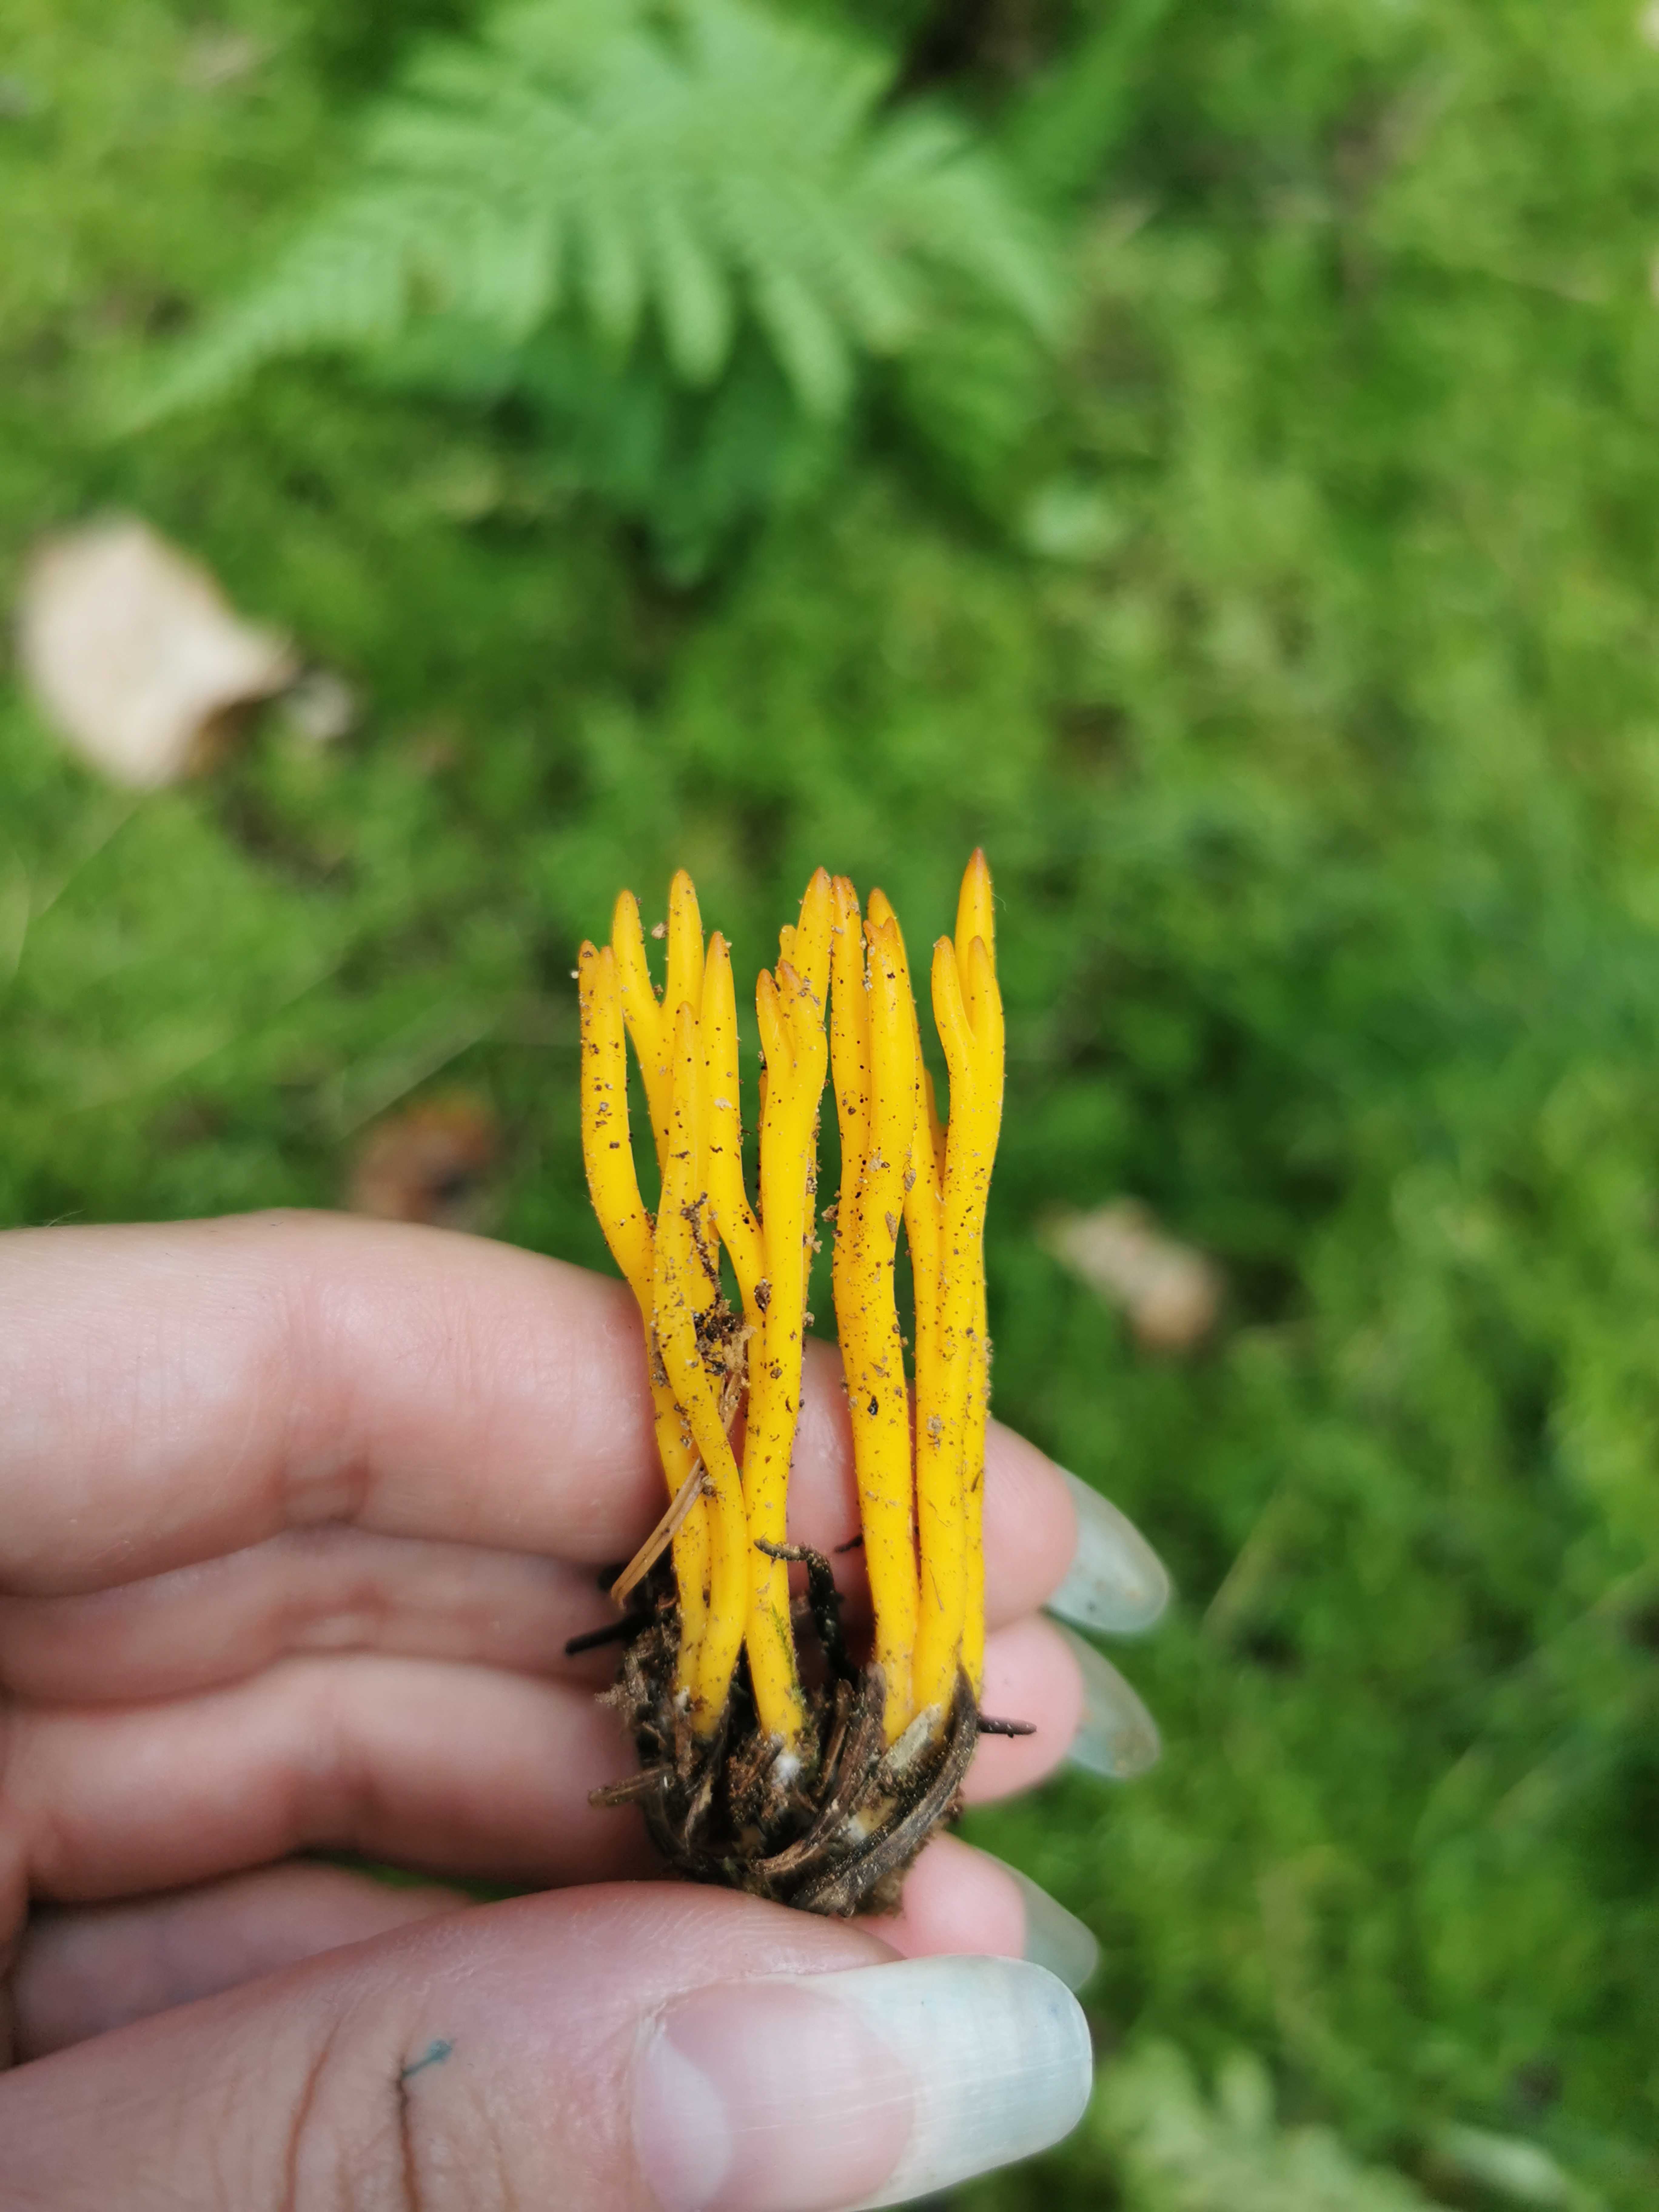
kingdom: Fungi
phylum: Basidiomycota
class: Dacrymycetes
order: Dacrymycetales
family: Dacrymycetaceae
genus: Calocera
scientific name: Calocera viscosa
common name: almindelig guldgaffel
